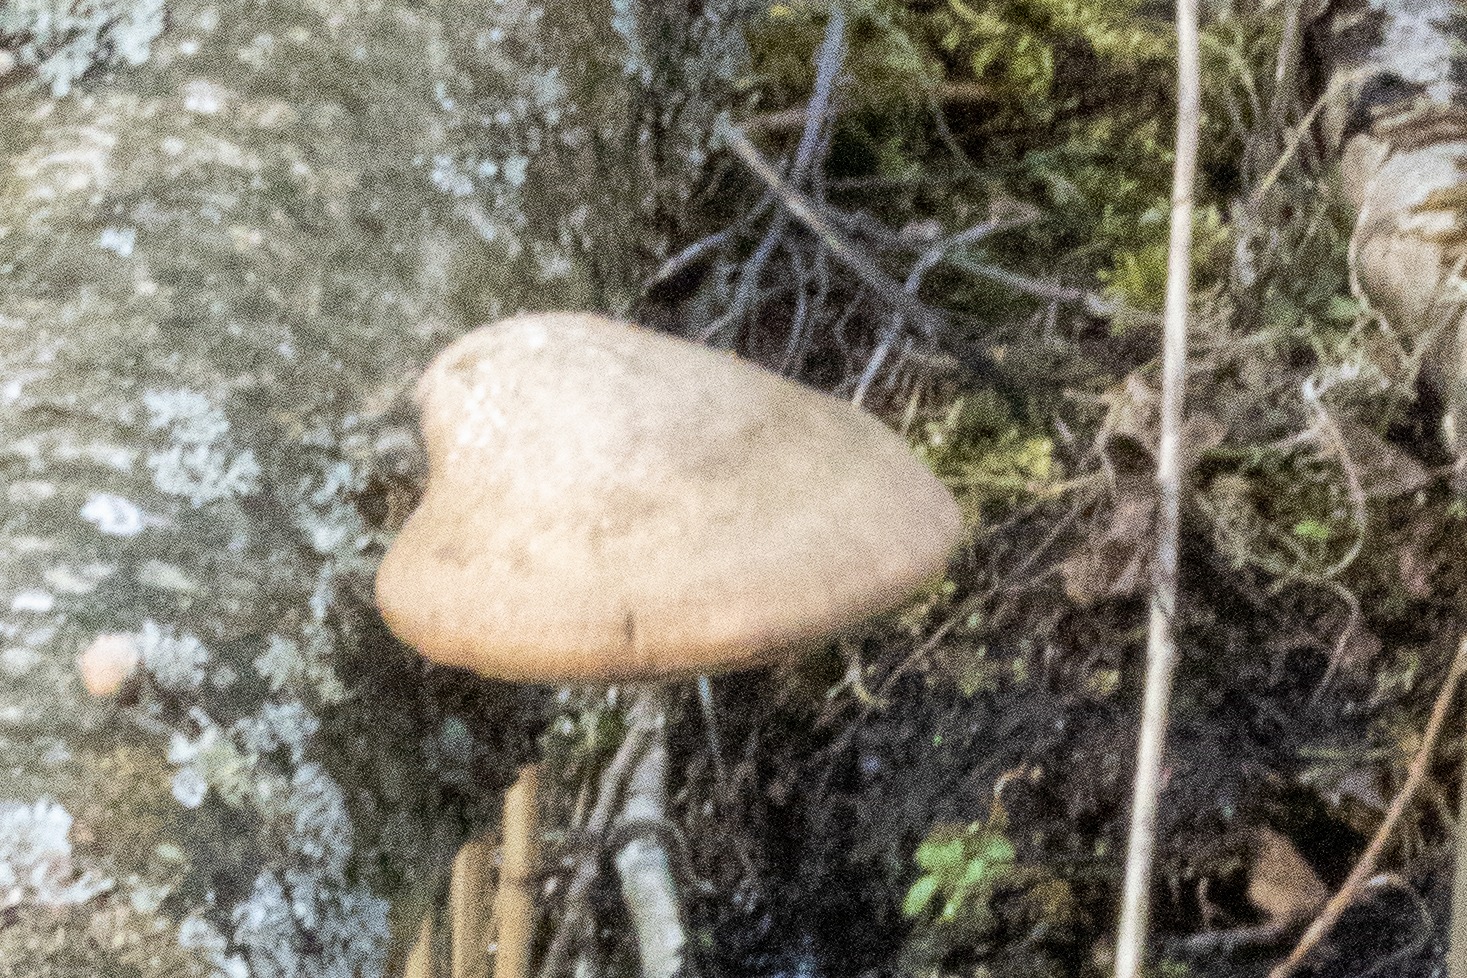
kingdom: Fungi
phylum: Basidiomycota
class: Agaricomycetes
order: Polyporales
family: Fomitopsidaceae
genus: Fomitopsis
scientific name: Fomitopsis betulina
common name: Birkeporesvamp
